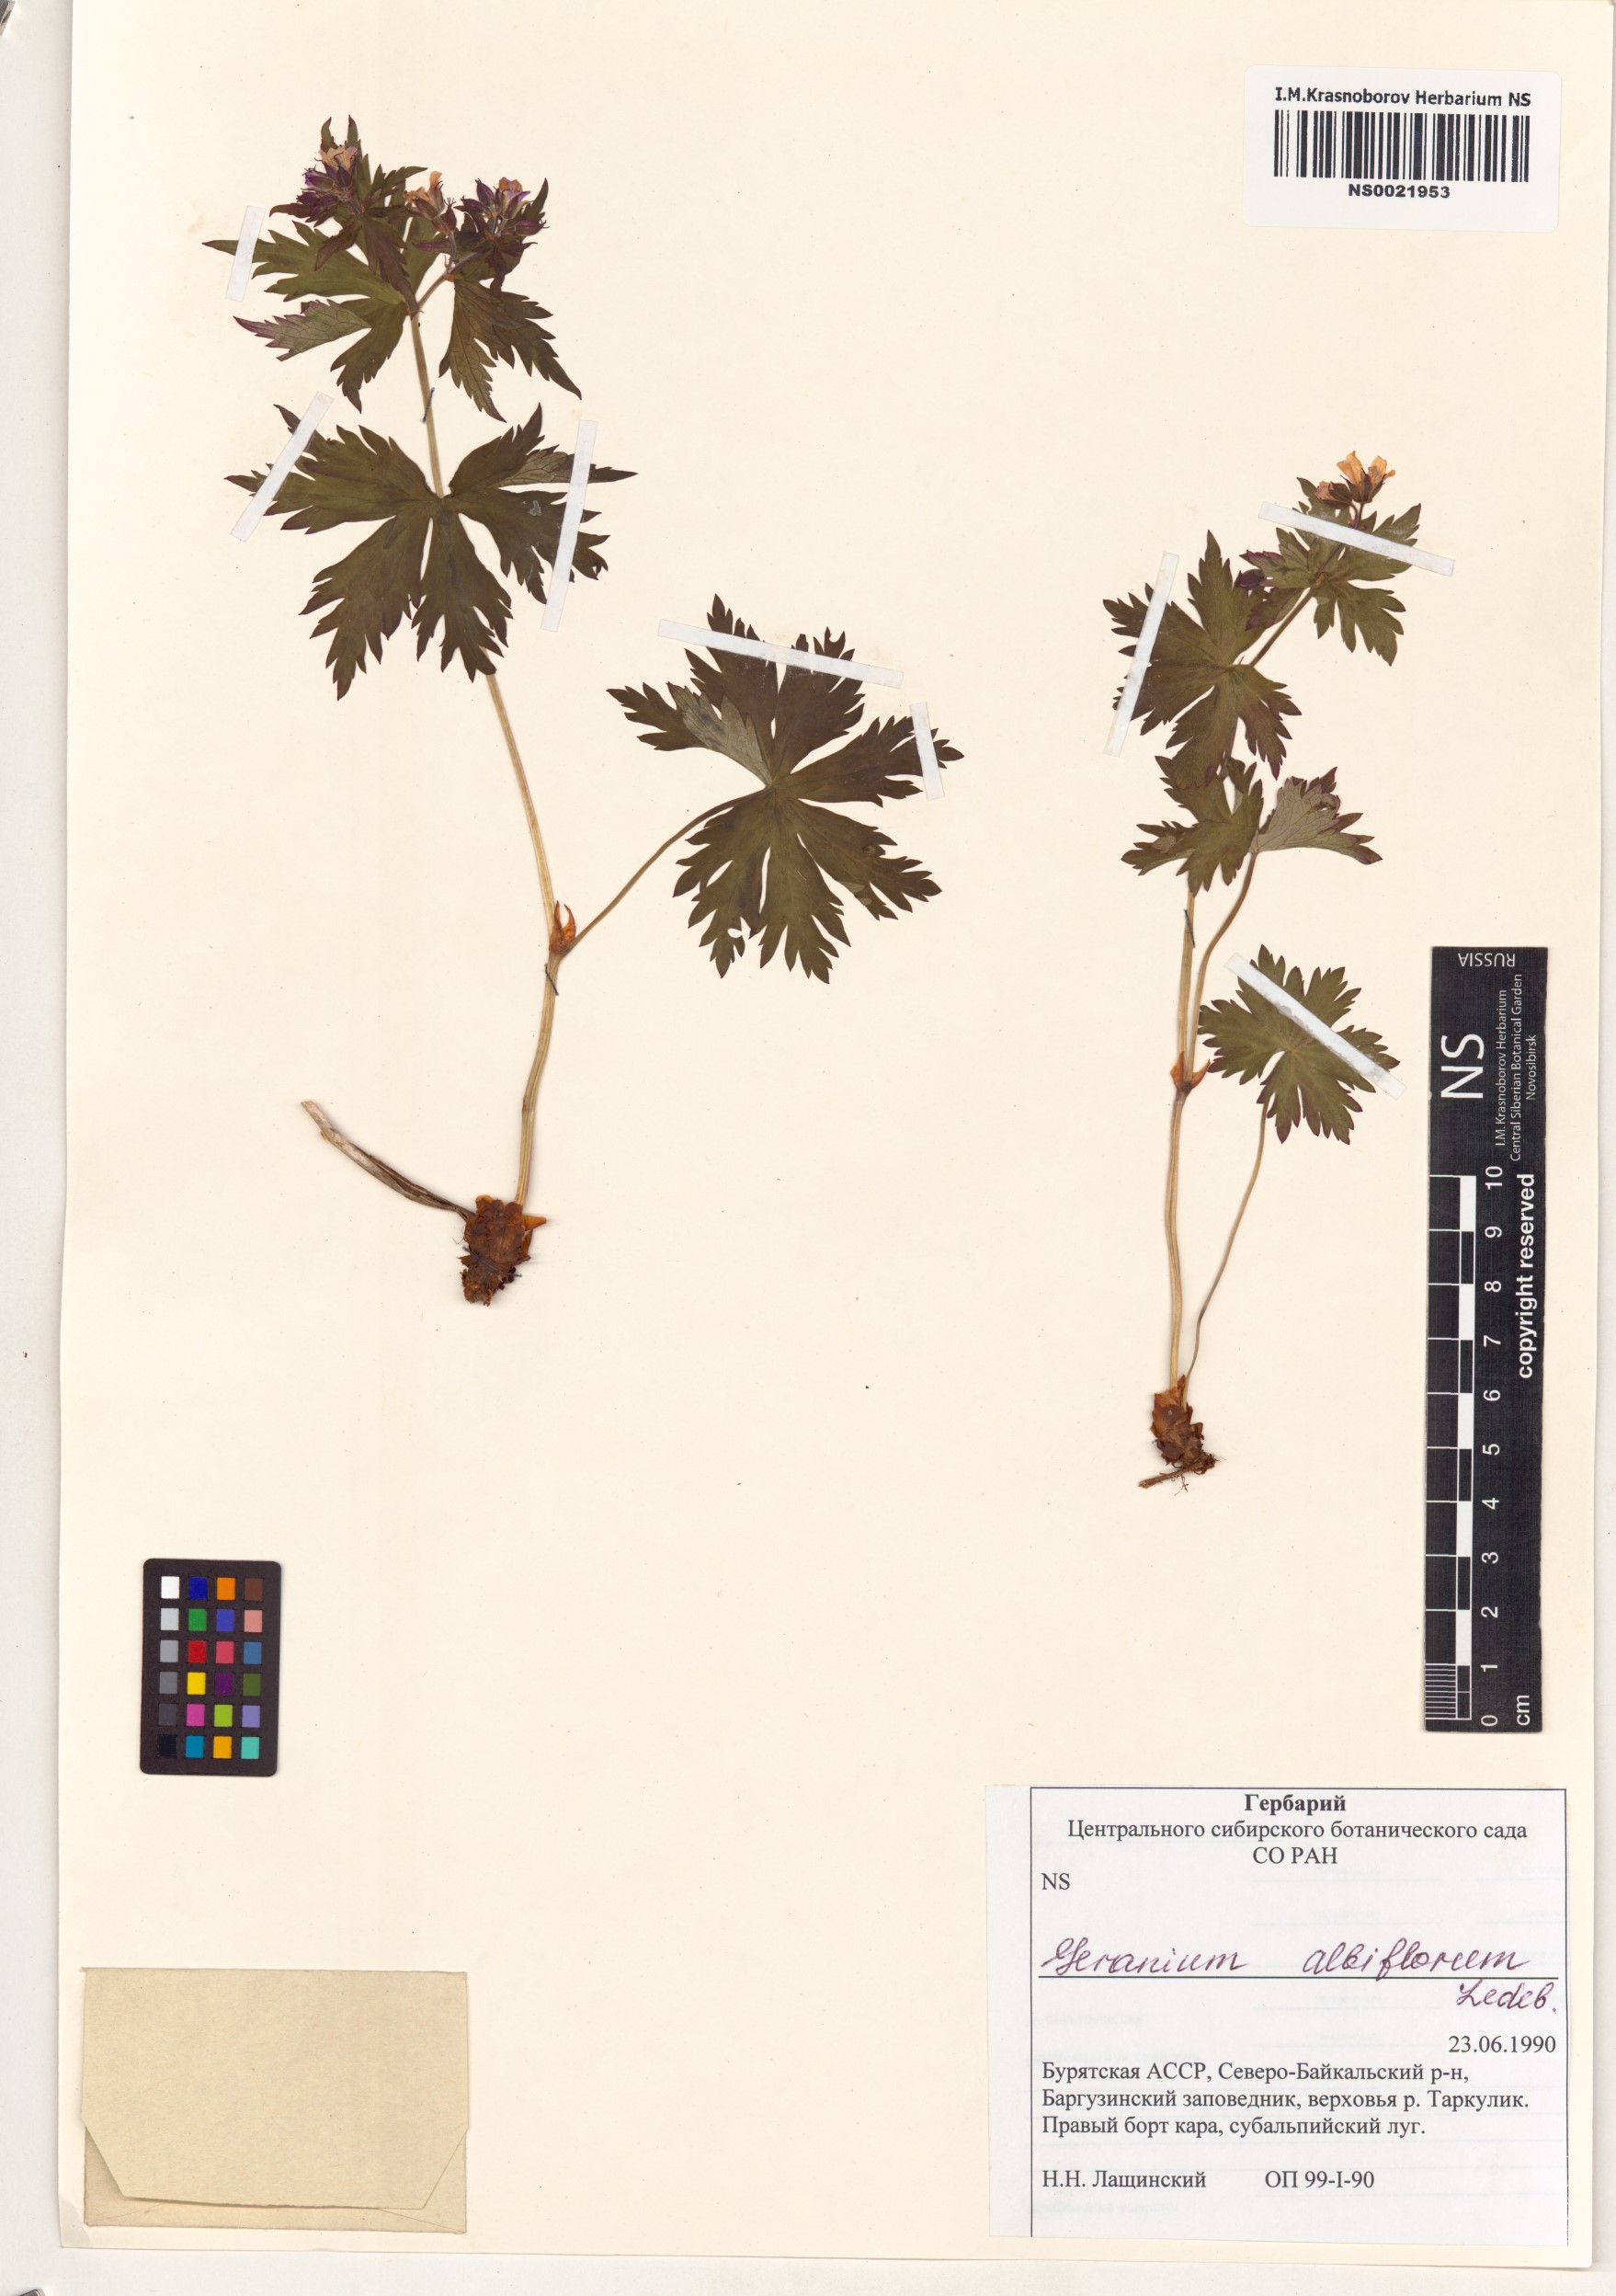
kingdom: Plantae
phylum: Tracheophyta
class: Magnoliopsida
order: Geraniales
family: Geraniaceae
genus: Geranium
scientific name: Geranium albiflorum
